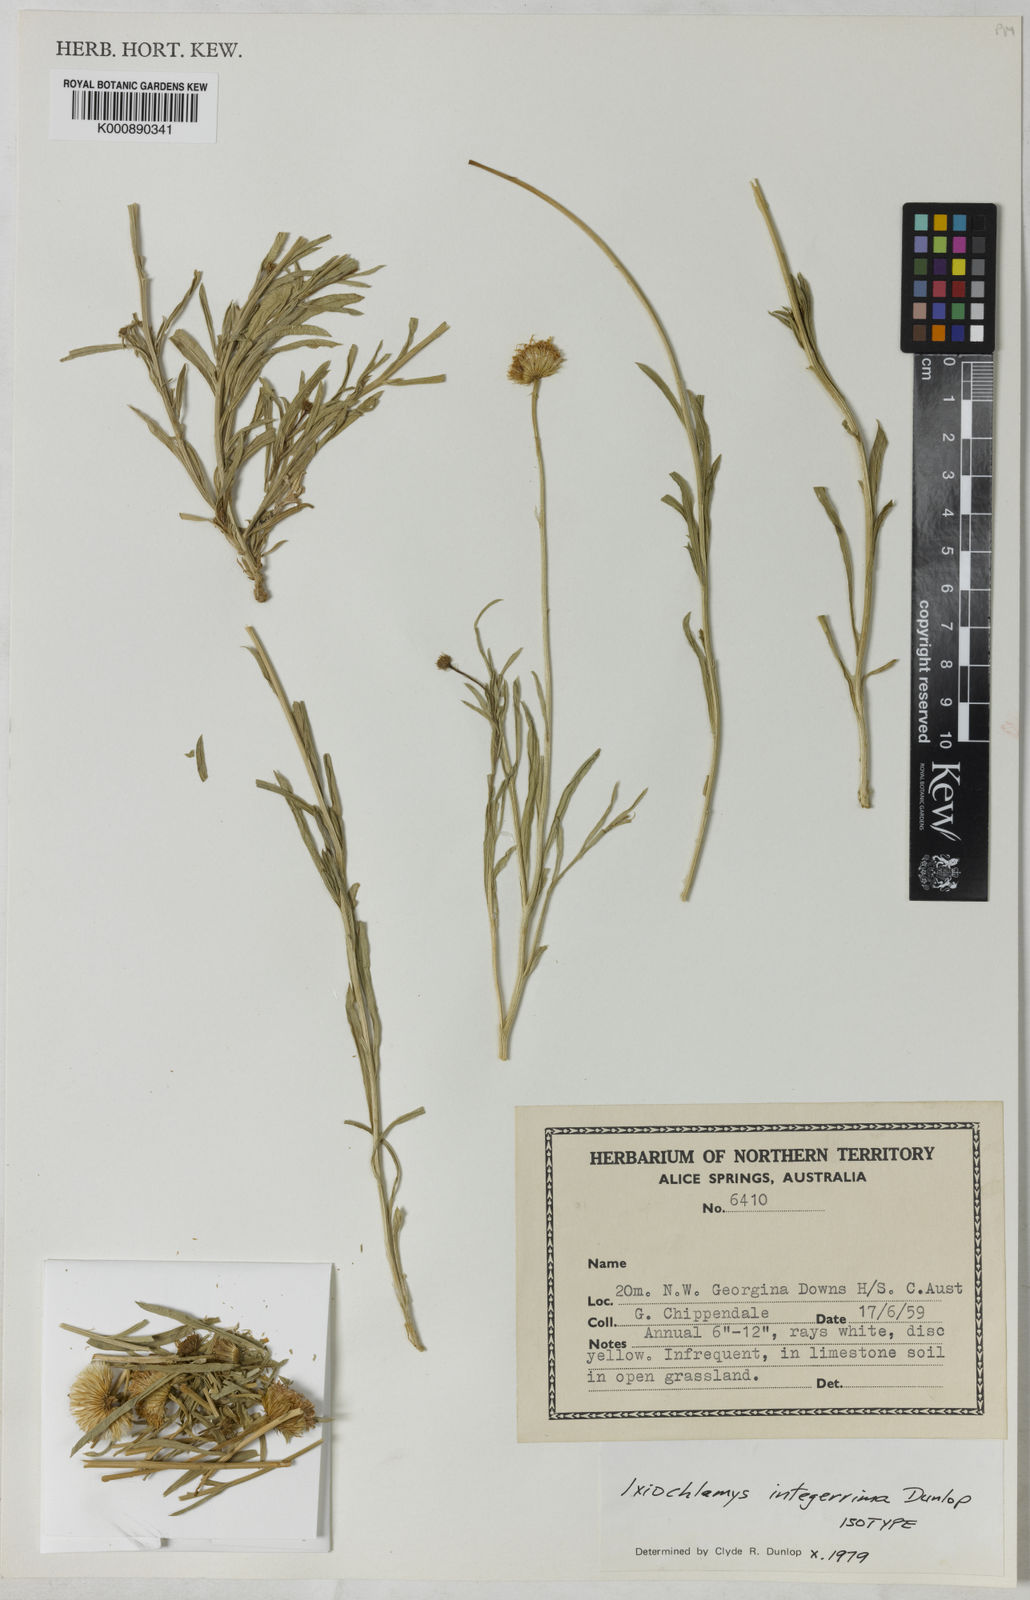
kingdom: Plantae
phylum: Tracheophyta
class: Magnoliopsida
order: Asterales
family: Asteraceae
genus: Ixiochlamys
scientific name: Ixiochlamys integerrima
